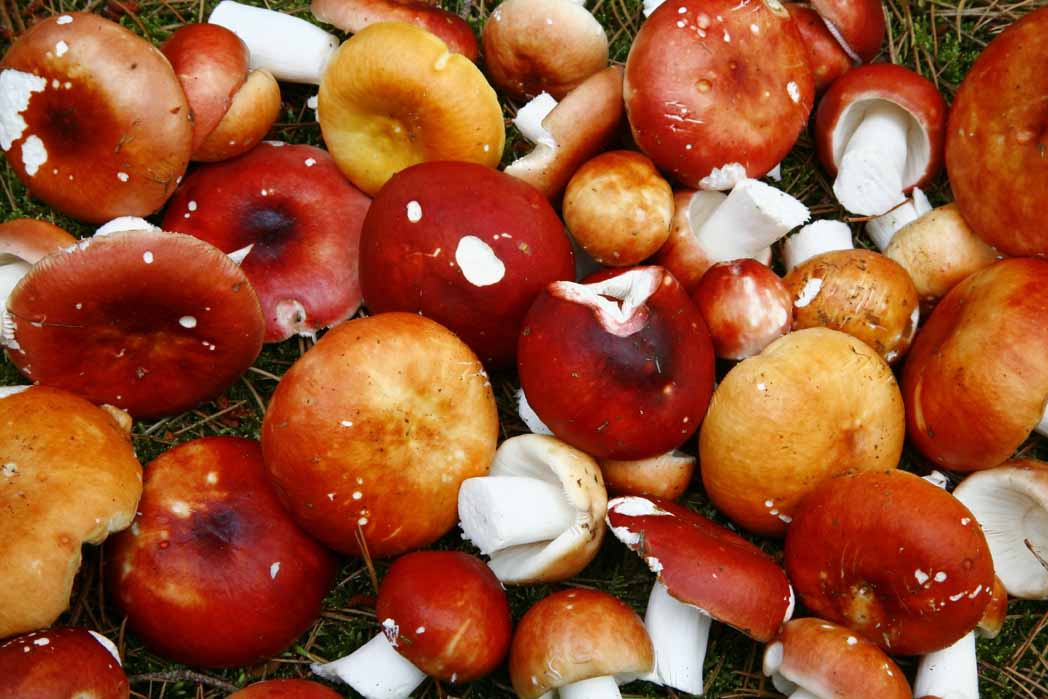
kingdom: Fungi
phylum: Basidiomycota
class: Agaricomycetes
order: Russulales
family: Russulaceae
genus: Russula
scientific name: Russula paludosa
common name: prægtig skørhat
